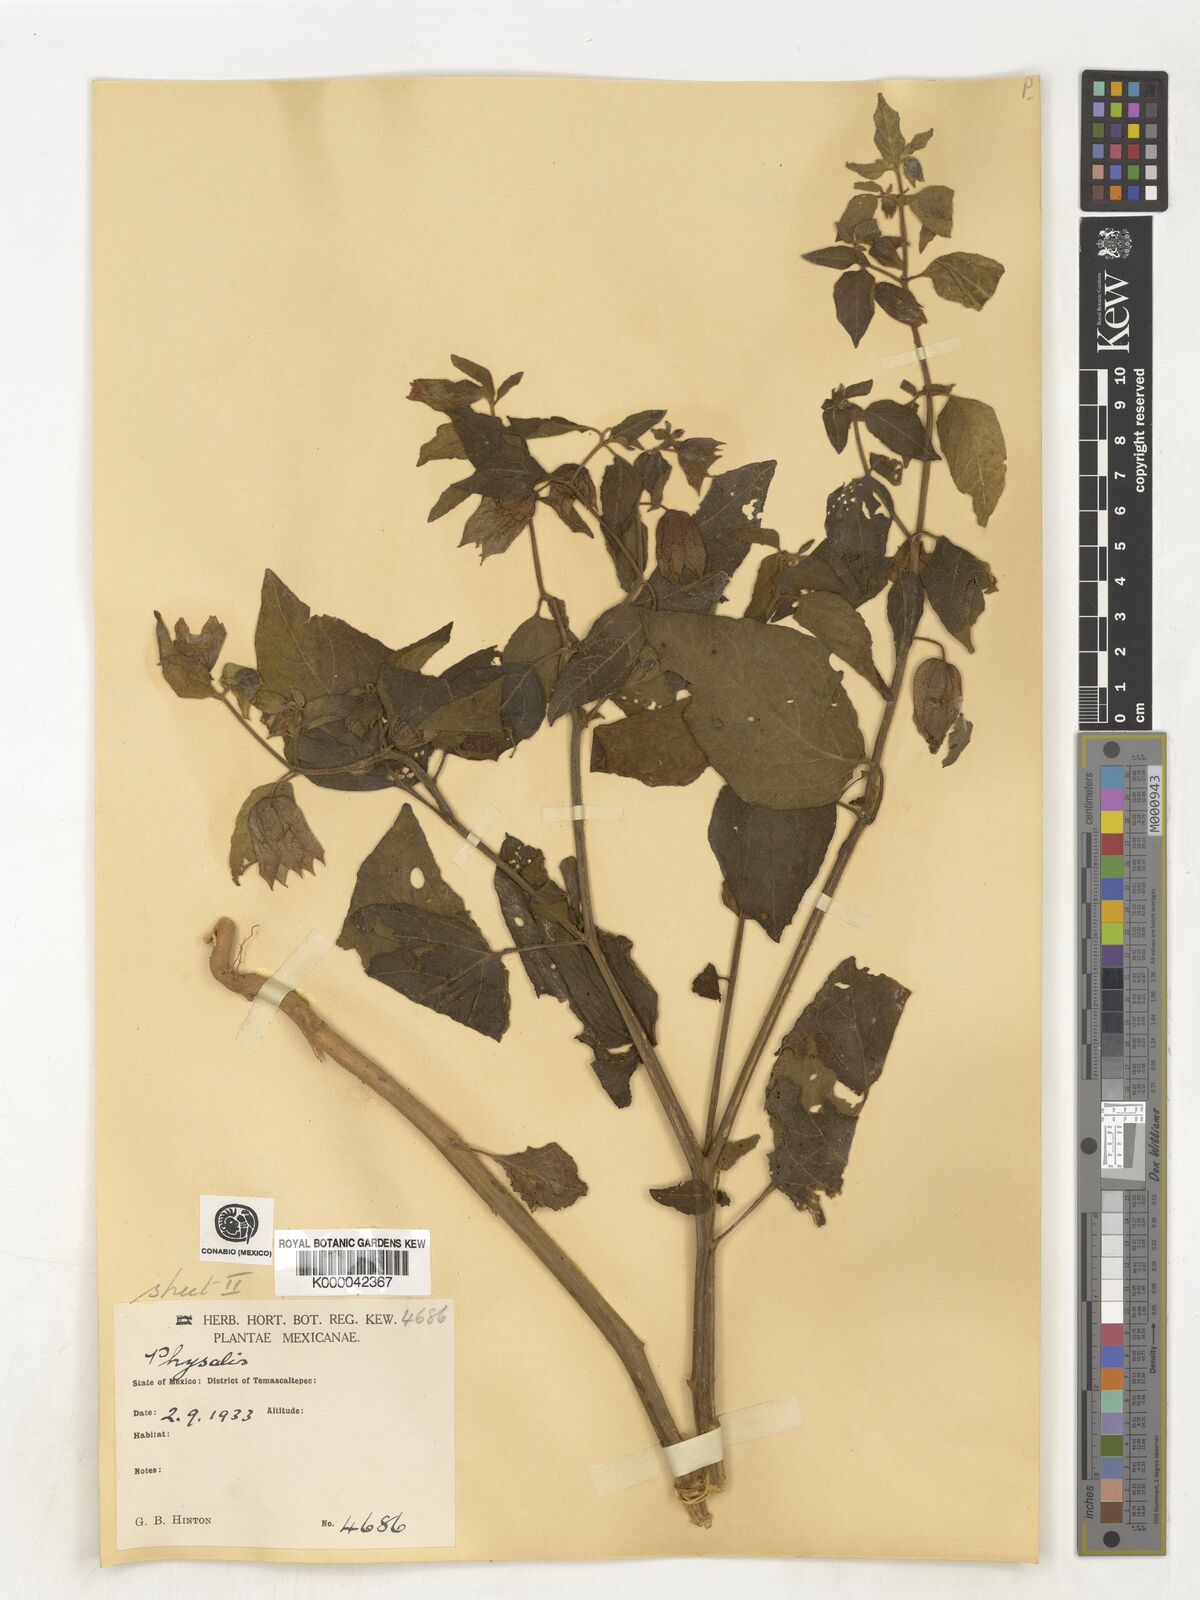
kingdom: Plantae
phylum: Tracheophyta
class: Magnoliopsida
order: Solanales
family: Solanaceae
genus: Physalis
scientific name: Physalis
